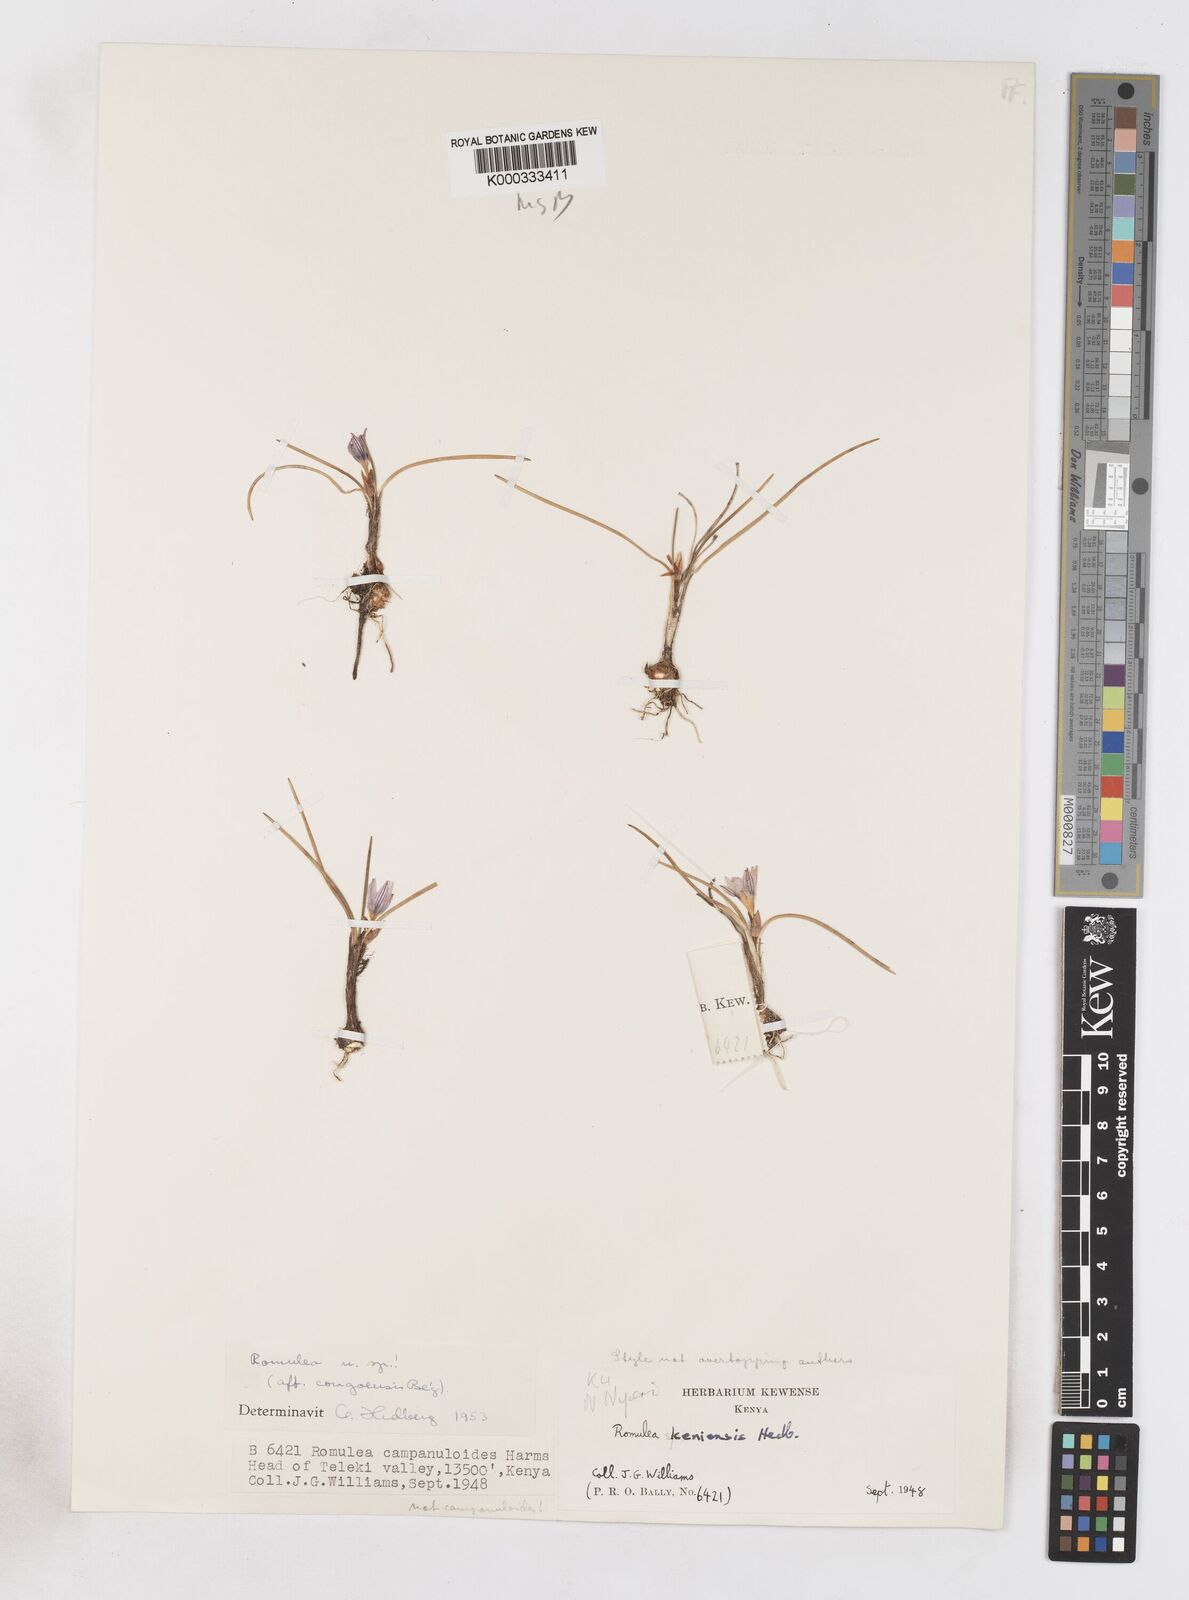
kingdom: Plantae
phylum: Tracheophyta
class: Liliopsida
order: Asparagales
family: Iridaceae
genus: Romulea
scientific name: Romulea congoensis
